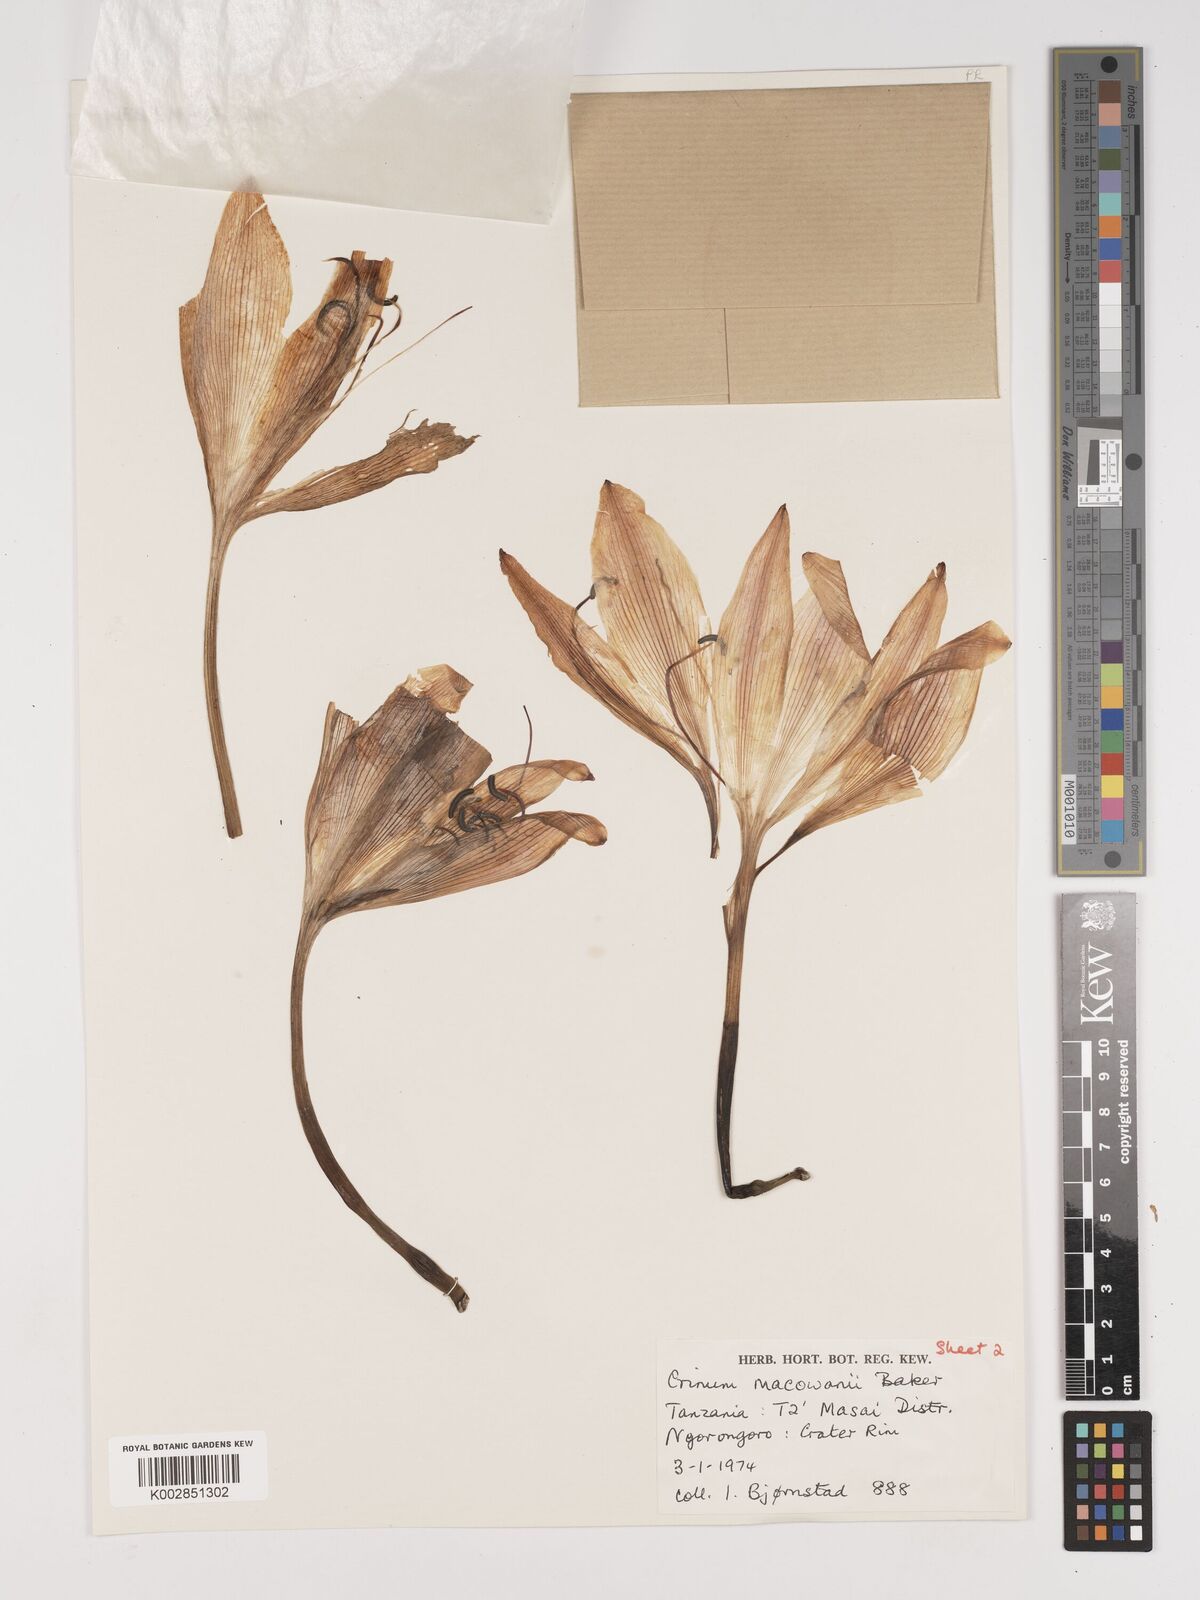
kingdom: Plantae
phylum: Tracheophyta
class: Liliopsida
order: Asparagales
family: Amaryllidaceae
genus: Crinum
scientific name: Crinum macowanii
